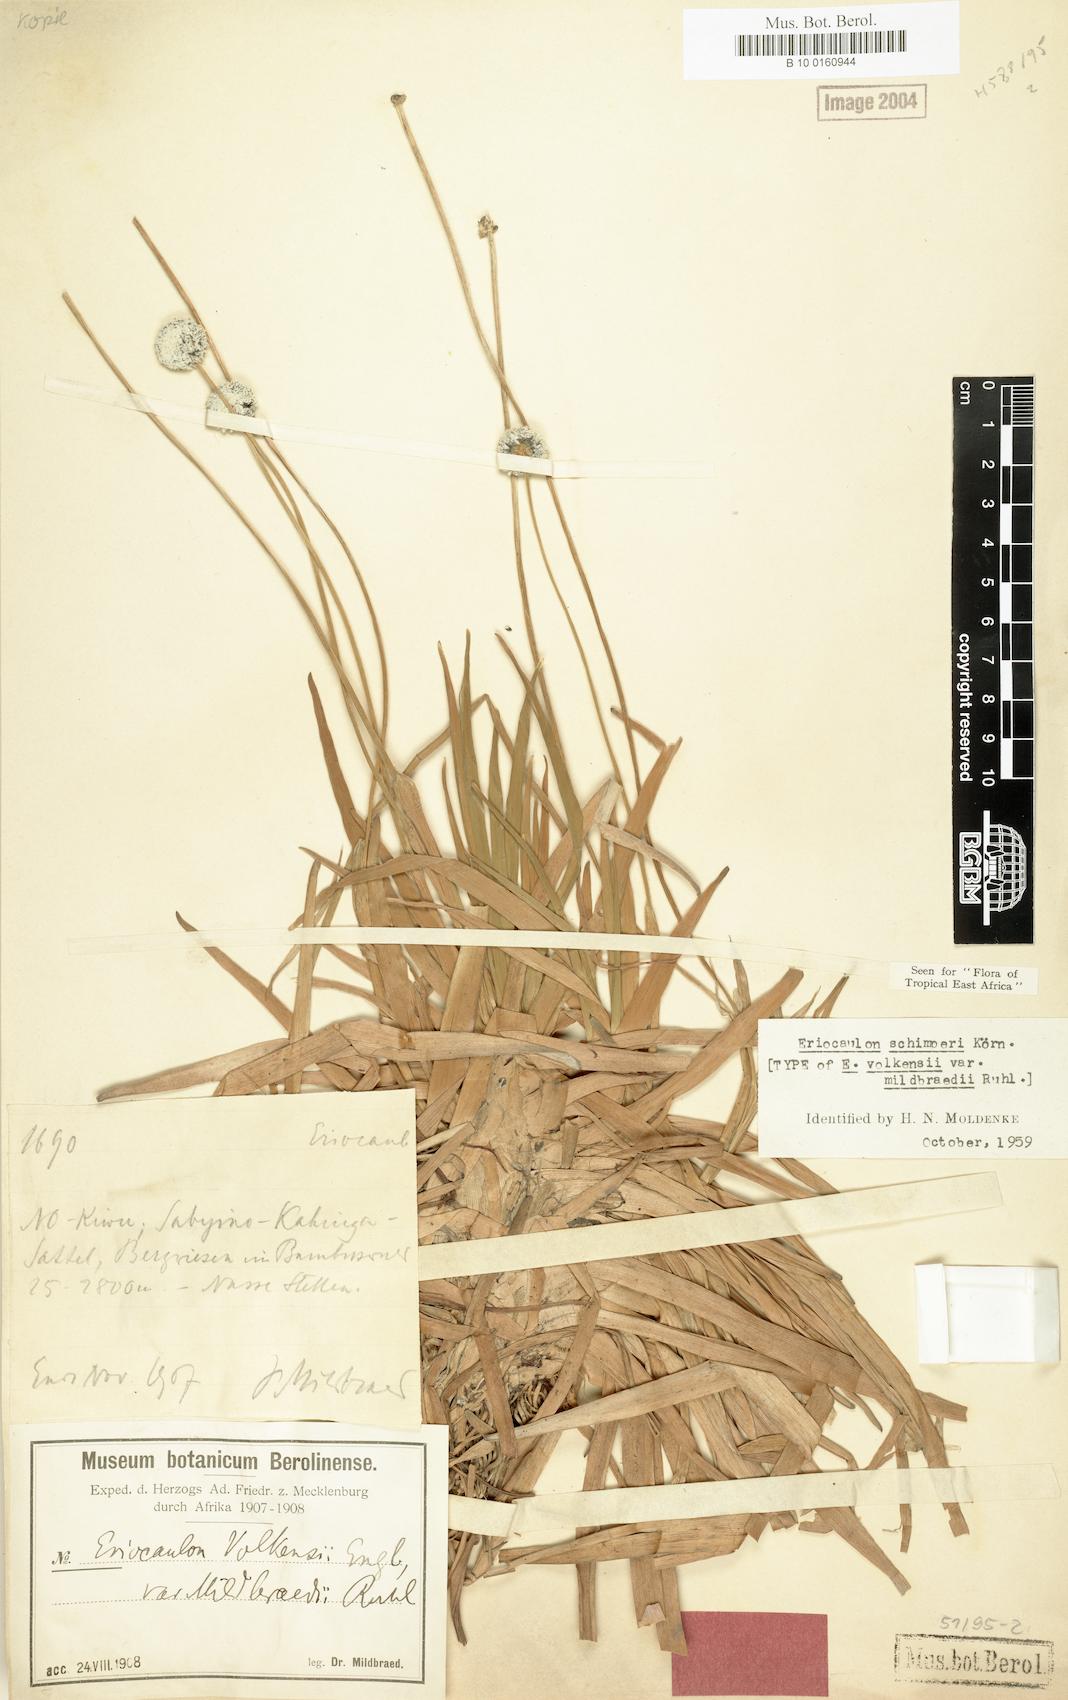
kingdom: Plantae
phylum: Tracheophyta
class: Liliopsida
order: Poales
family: Eriocaulaceae
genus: Eriocaulon
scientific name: Eriocaulon schimperi
